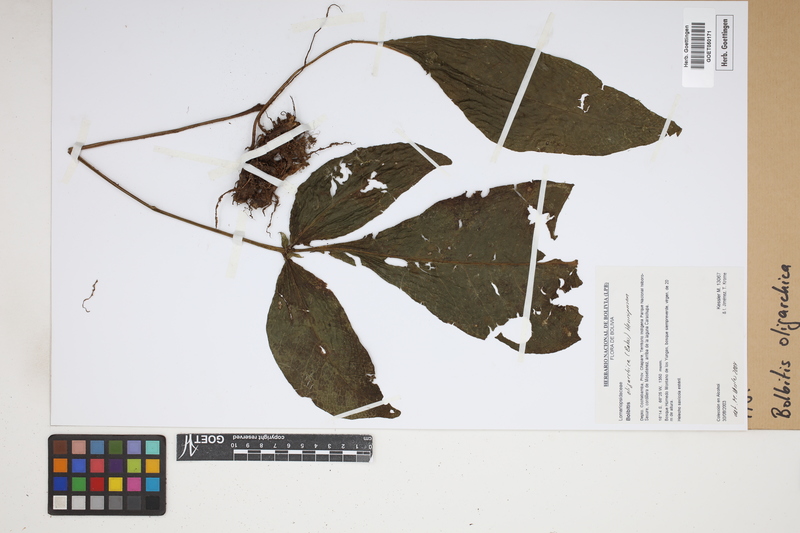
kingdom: Plantae
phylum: Tracheophyta
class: Polypodiopsida
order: Polypodiales
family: Dryopteridaceae
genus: Mickelia
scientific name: Mickelia oligarchica
